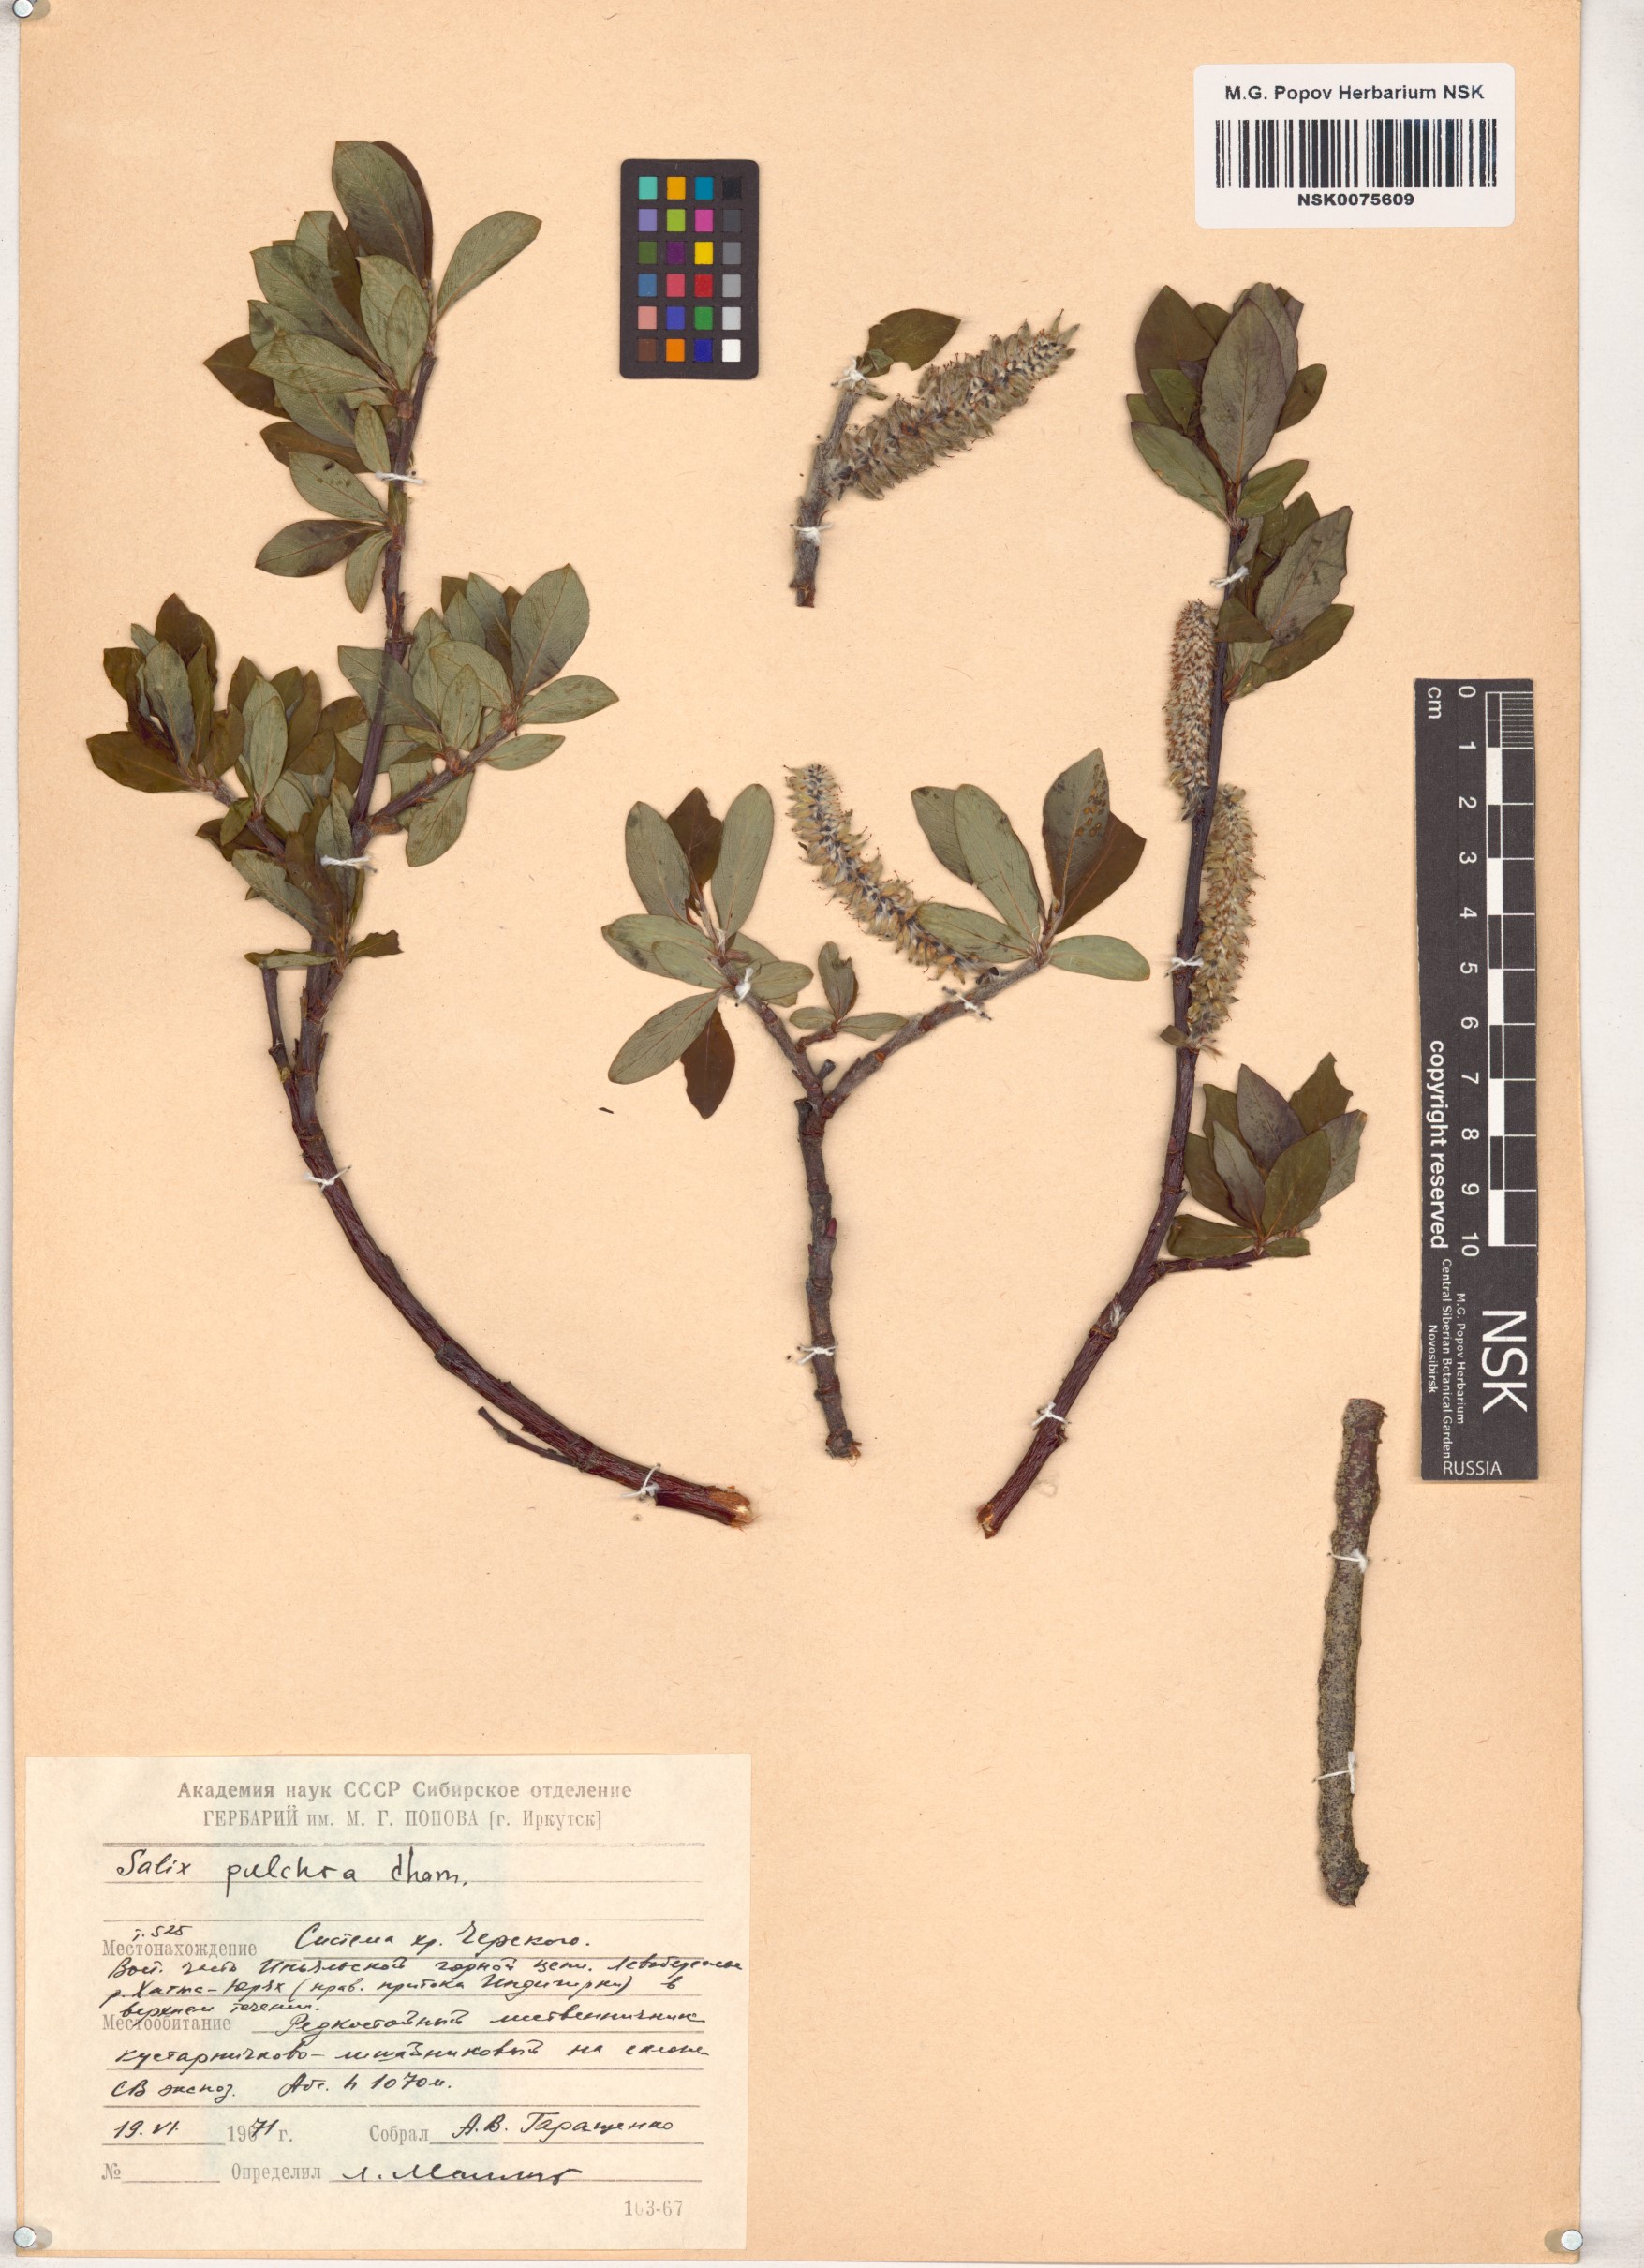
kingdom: Plantae
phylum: Tracheophyta
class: Magnoliopsida
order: Malpighiales
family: Salicaceae
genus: Salix
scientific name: Salix pulchra
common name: Diamond-leaved willow
